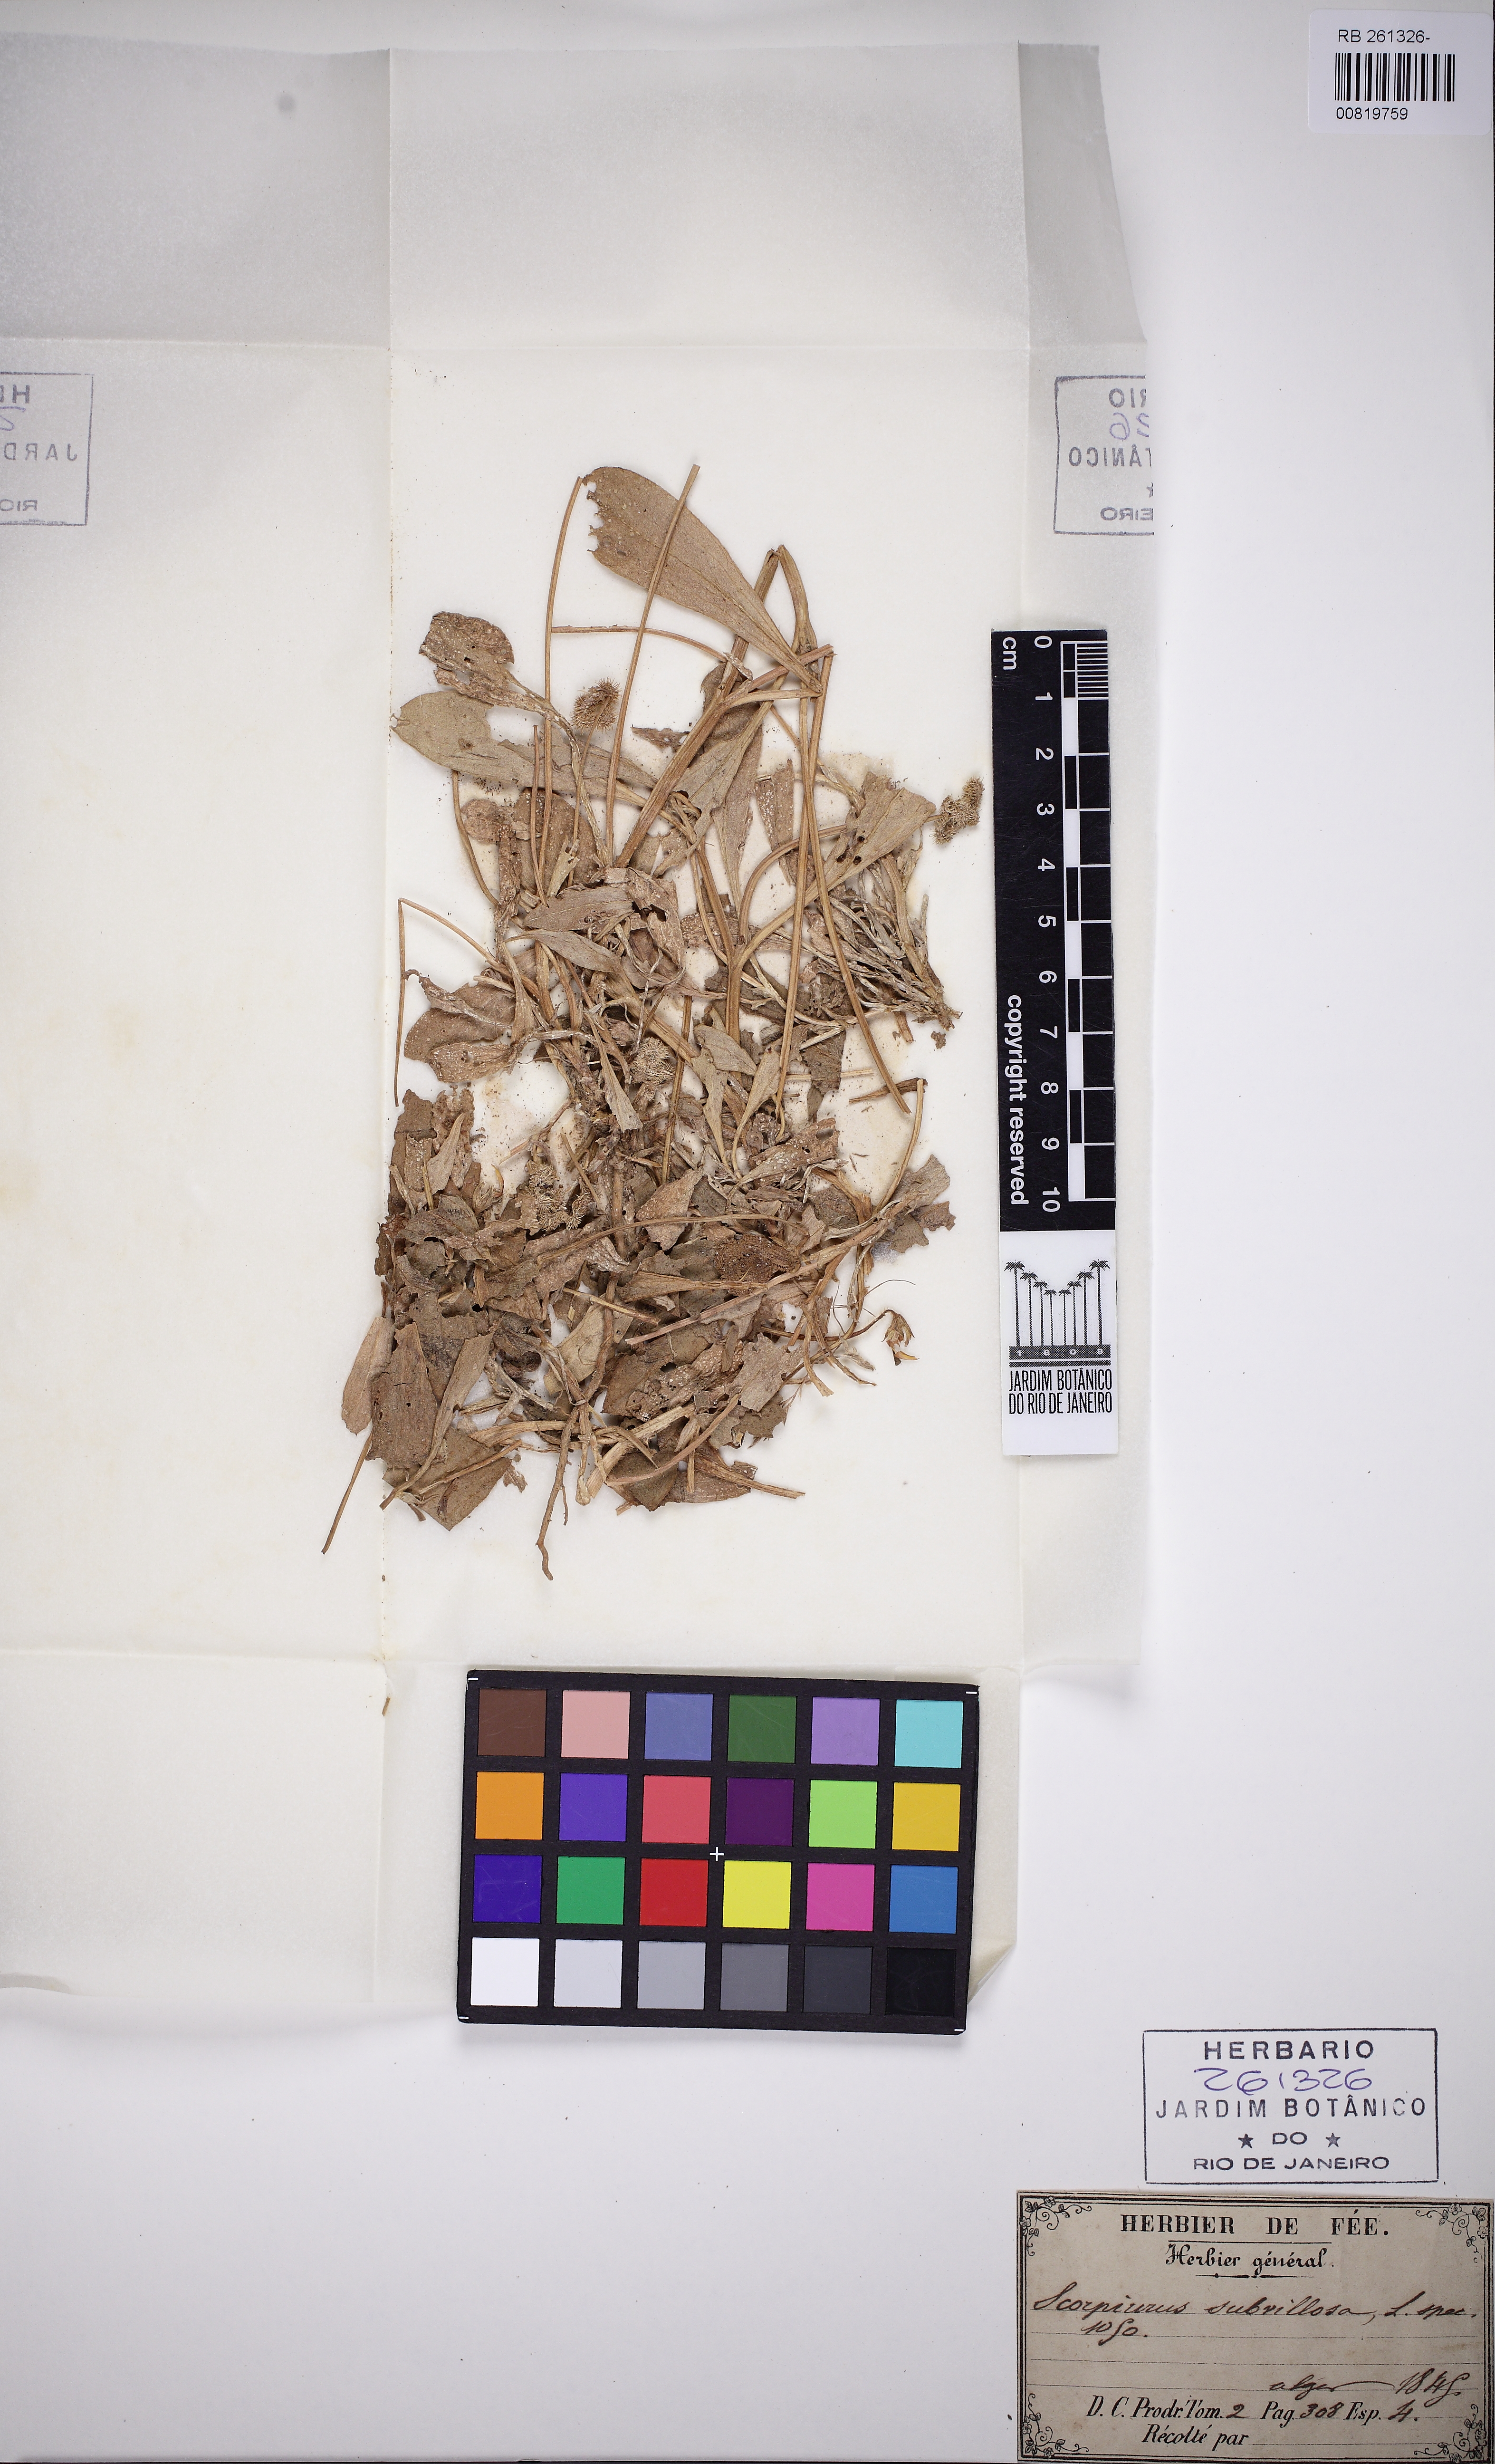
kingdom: Plantae
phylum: Tracheophyta
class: Magnoliopsida
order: Fabales
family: Fabaceae
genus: Scorpiurus
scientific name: Scorpiurus muricatus
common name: Caterpillar-plant
